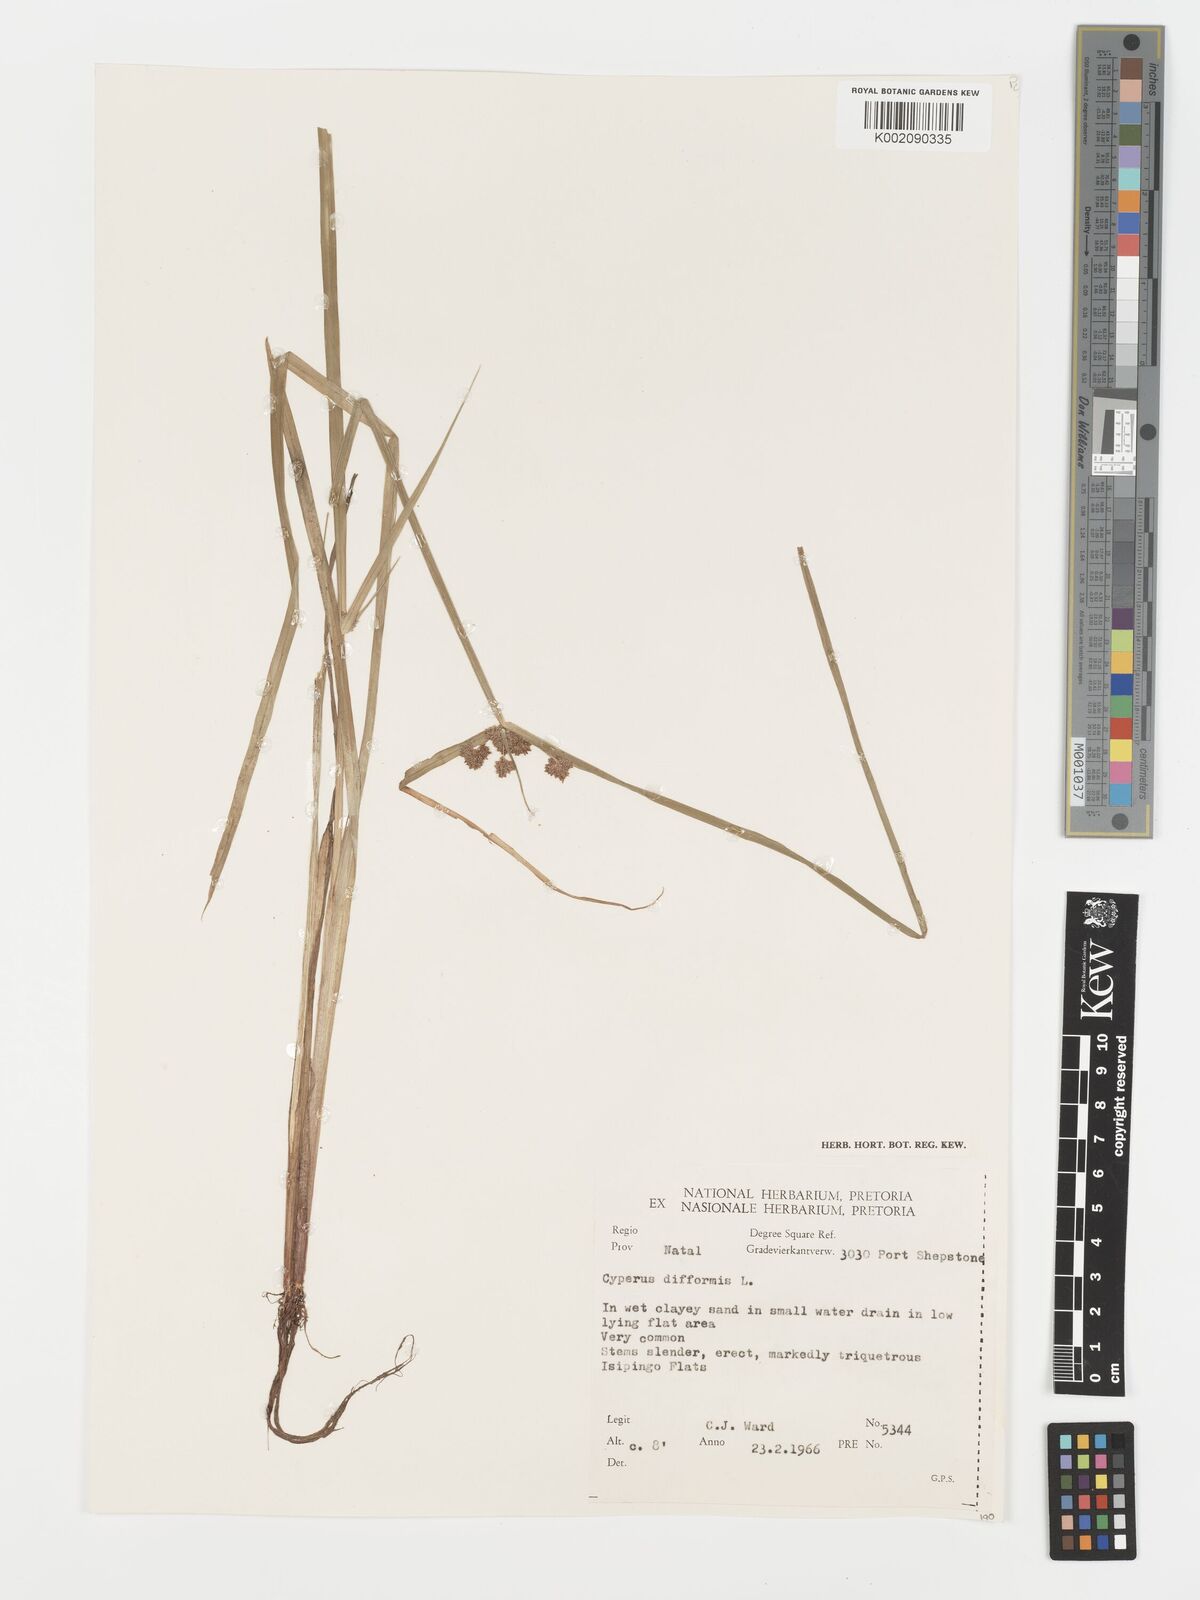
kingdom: Plantae
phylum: Tracheophyta
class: Liliopsida
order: Poales
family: Cyperaceae
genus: Cyperus
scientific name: Cyperus difformis
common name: Variable flatsedge
